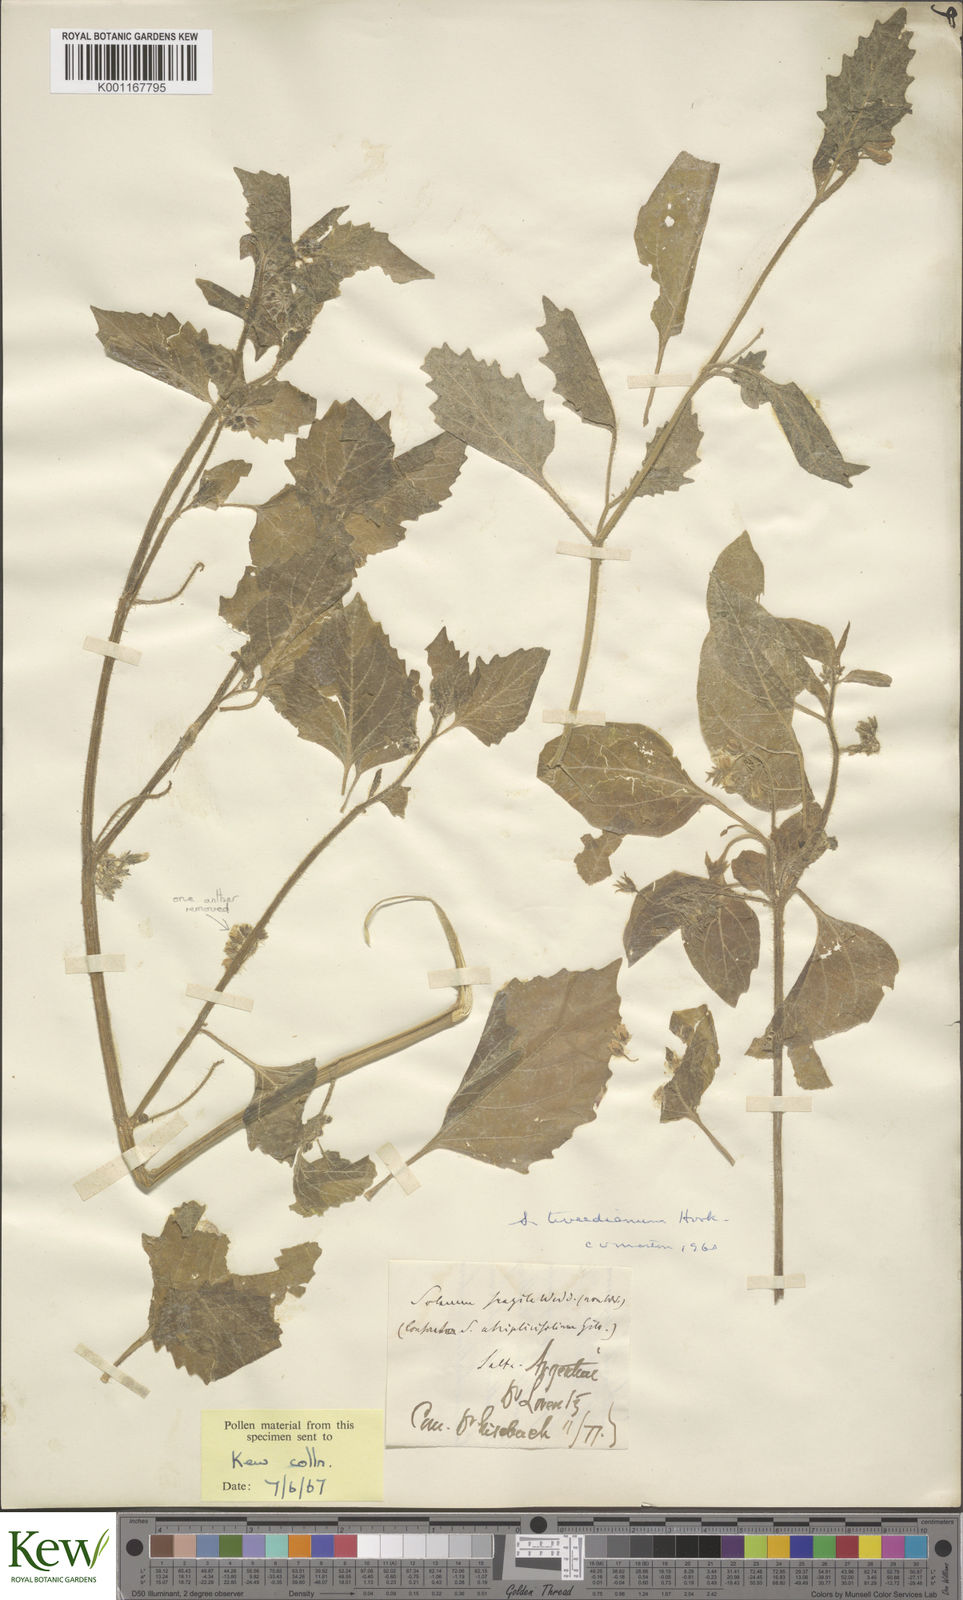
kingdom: Plantae
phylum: Tracheophyta
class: Magnoliopsida
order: Solanales
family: Solanaceae
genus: Solanum
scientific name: Solanum
